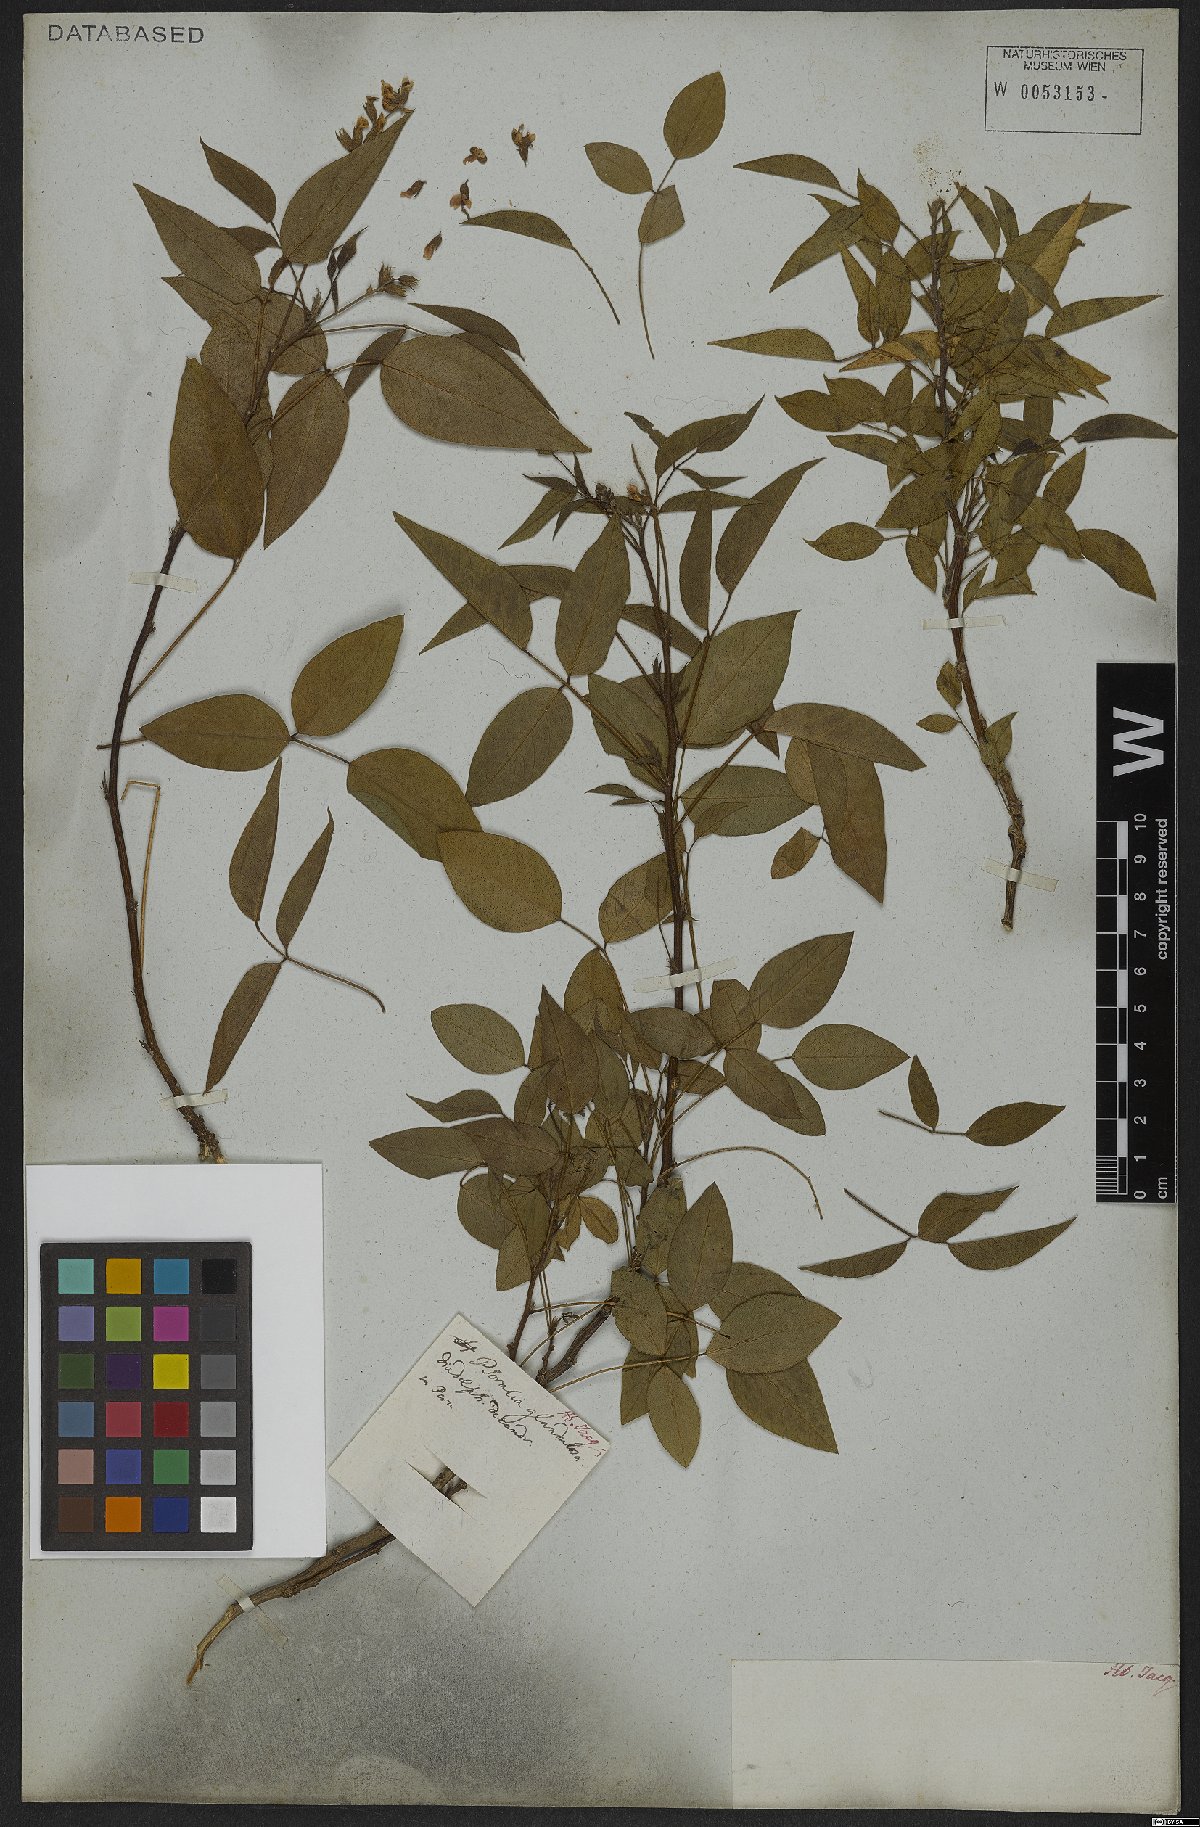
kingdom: Plantae
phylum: Tracheophyta
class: Magnoliopsida
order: Fabales
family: Fabaceae
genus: Psoralea
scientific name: Psoralea Otholobium glandulosum
